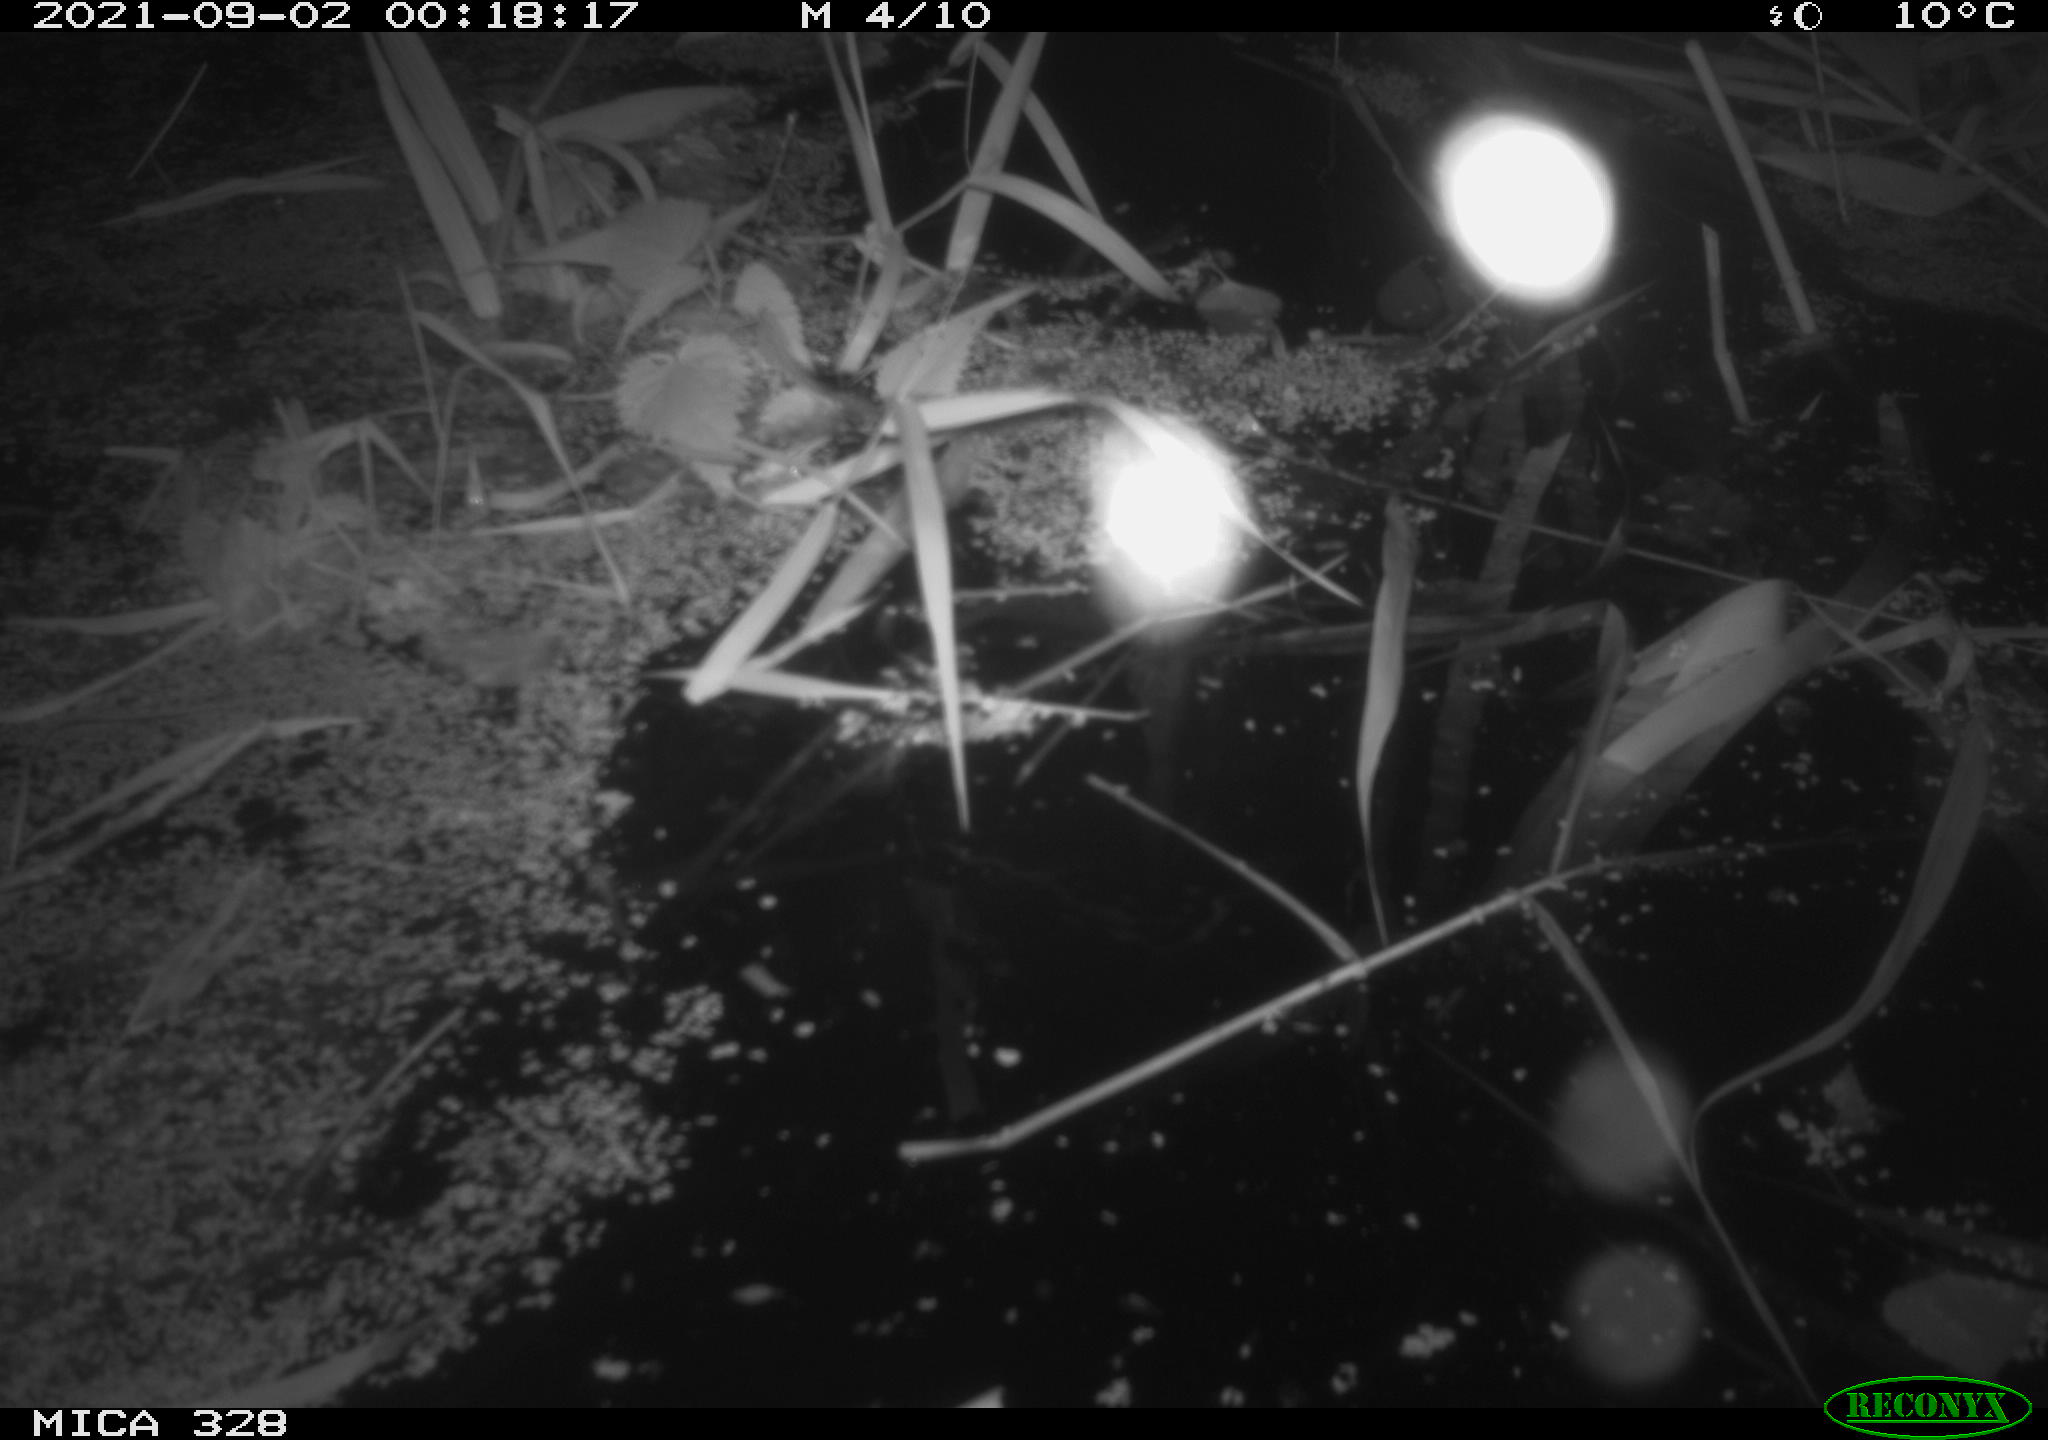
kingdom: Animalia
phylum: Chordata
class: Mammalia
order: Rodentia
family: Cricetidae
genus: Ondatra
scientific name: Ondatra zibethicus
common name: Muskrat
